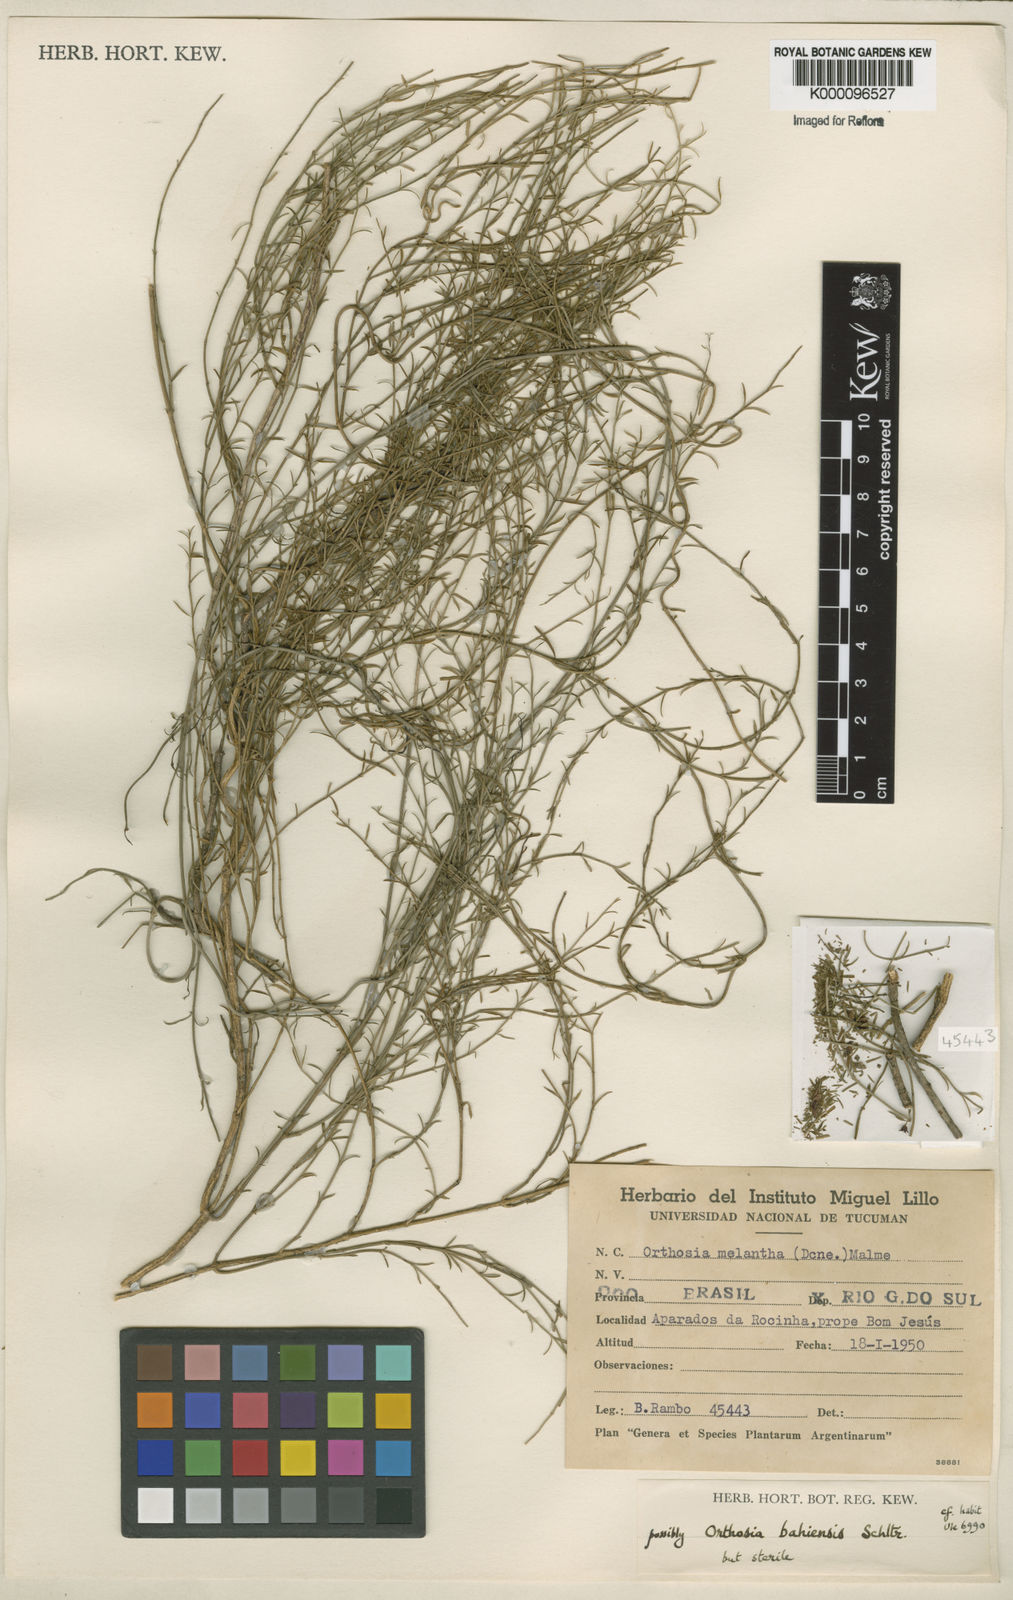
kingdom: Plantae
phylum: Tracheophyta
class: Magnoliopsida
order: Gentianales
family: Apocynaceae
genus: Orthosia
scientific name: Orthosia scoparia
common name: Leafless swallow-wort
